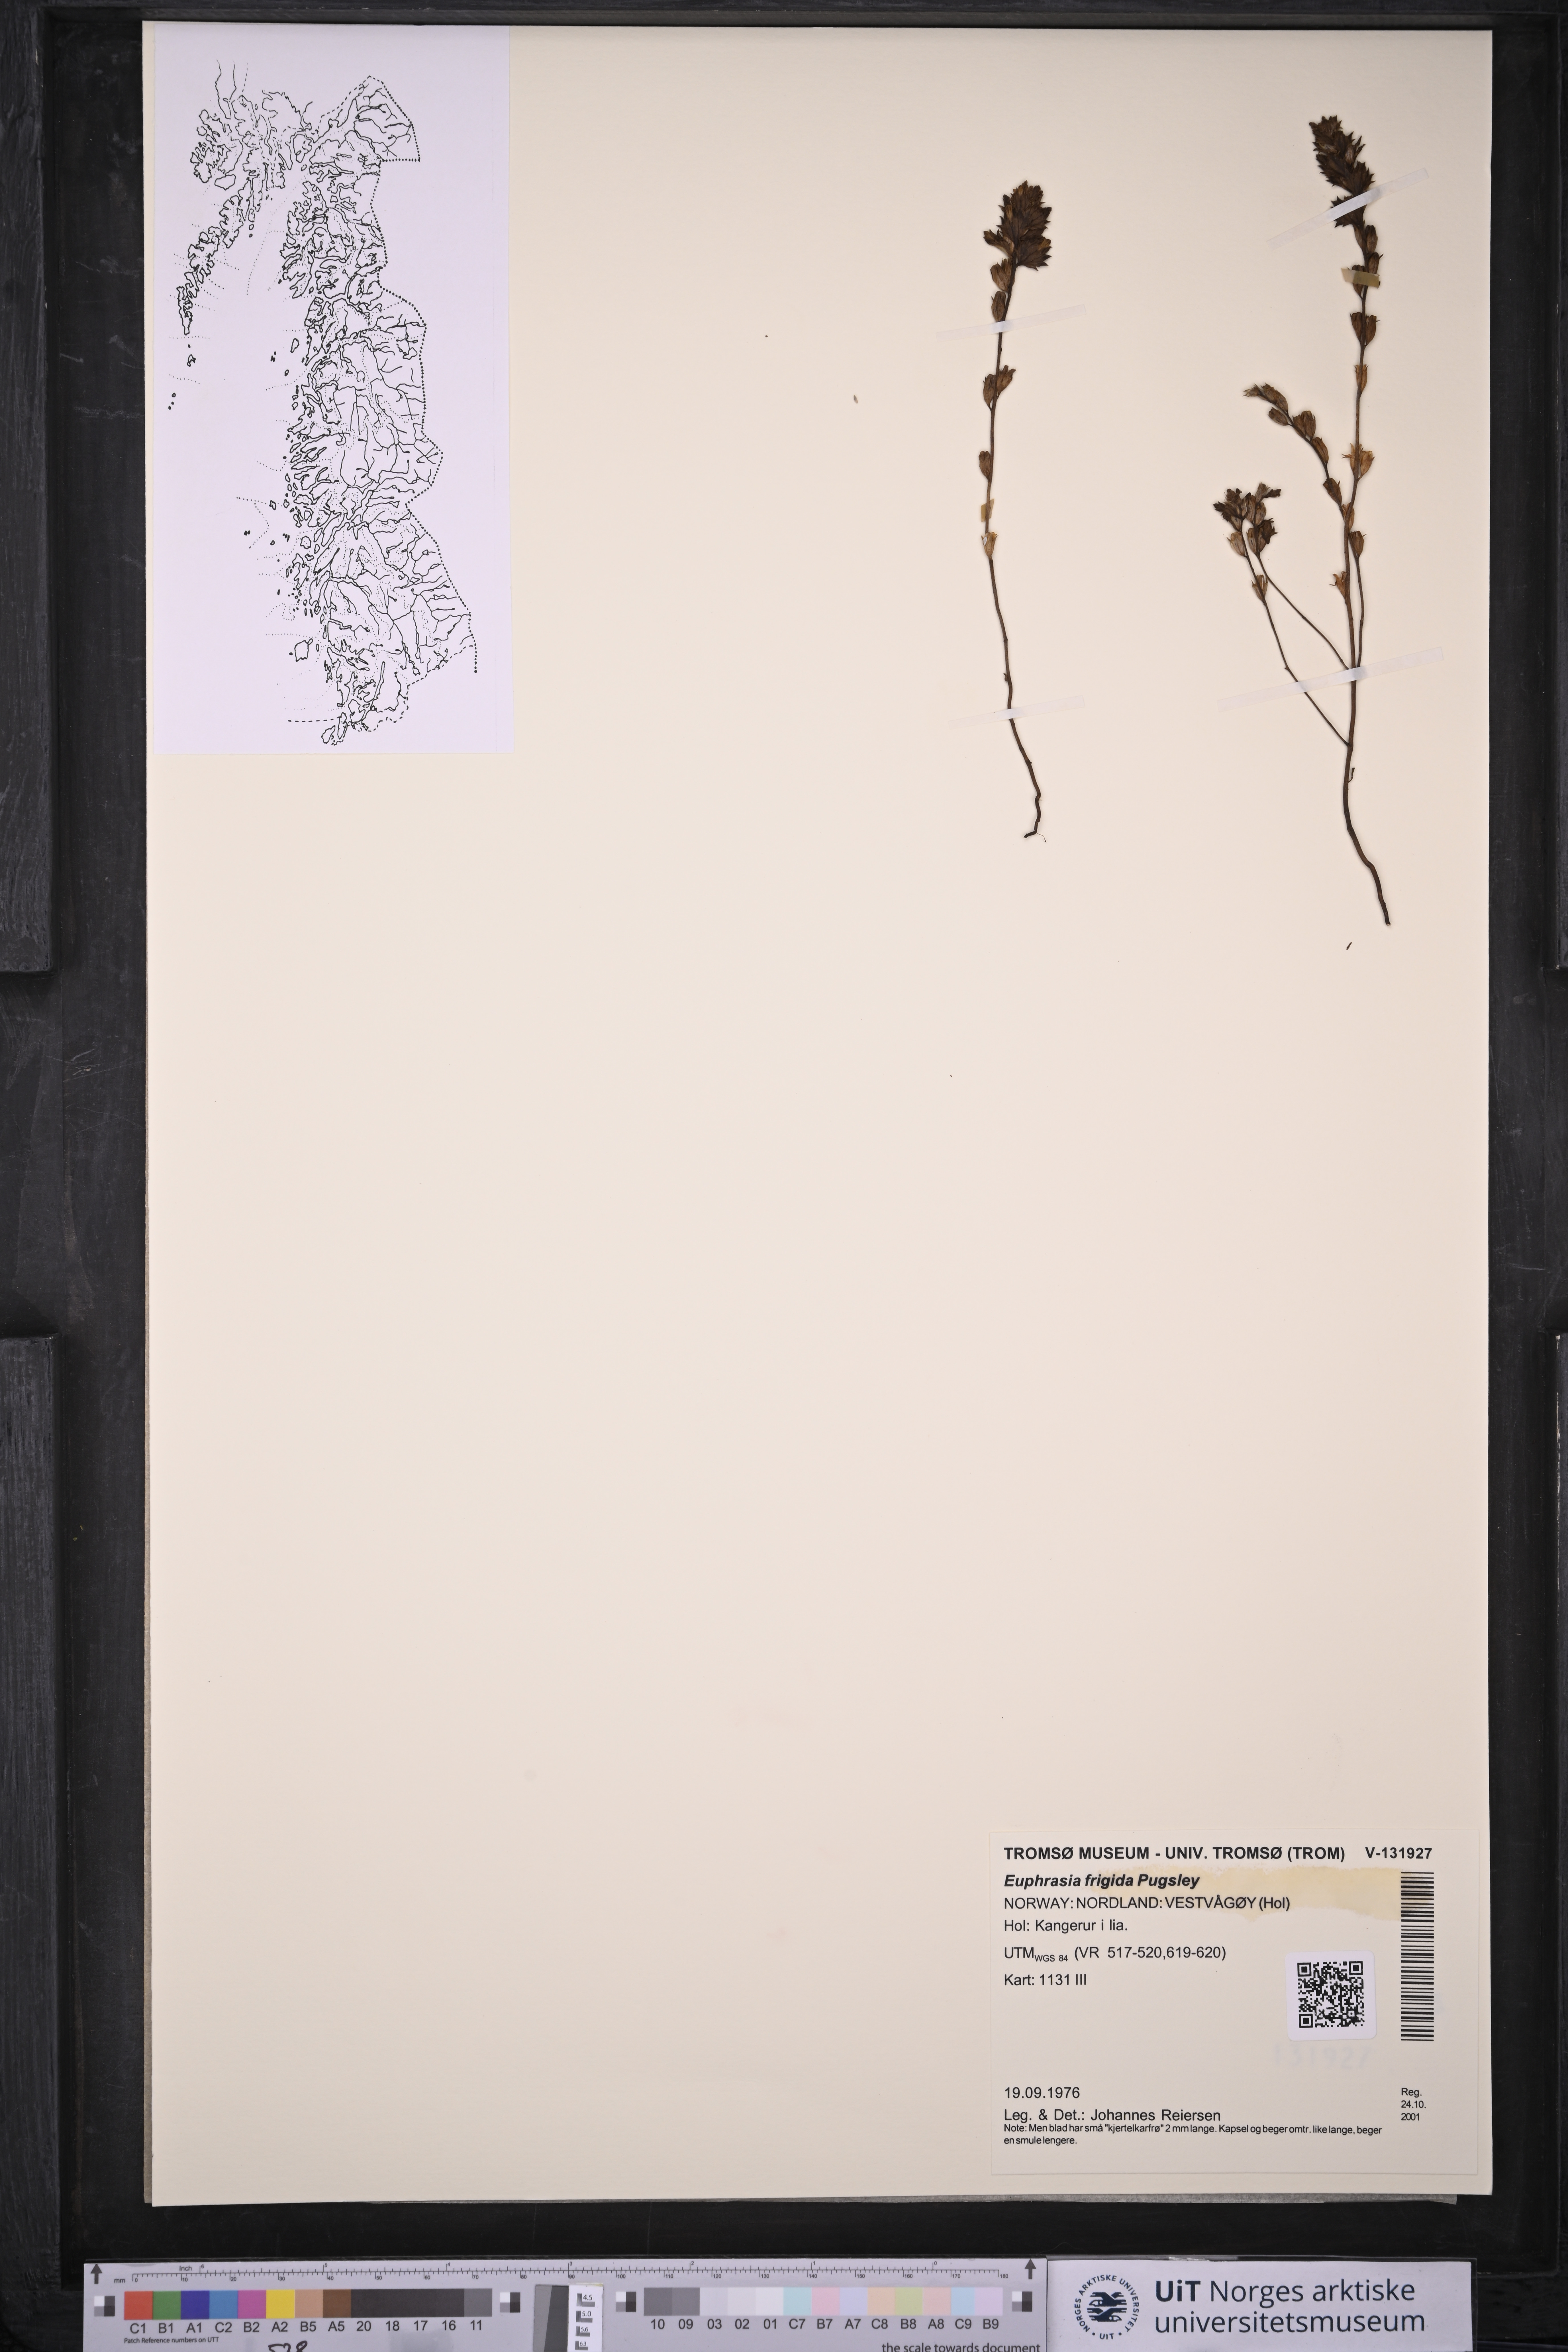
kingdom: Plantae
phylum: Tracheophyta
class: Magnoliopsida
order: Lamiales
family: Orobanchaceae
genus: Euphrasia
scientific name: Euphrasia frigida
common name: An eyebright
